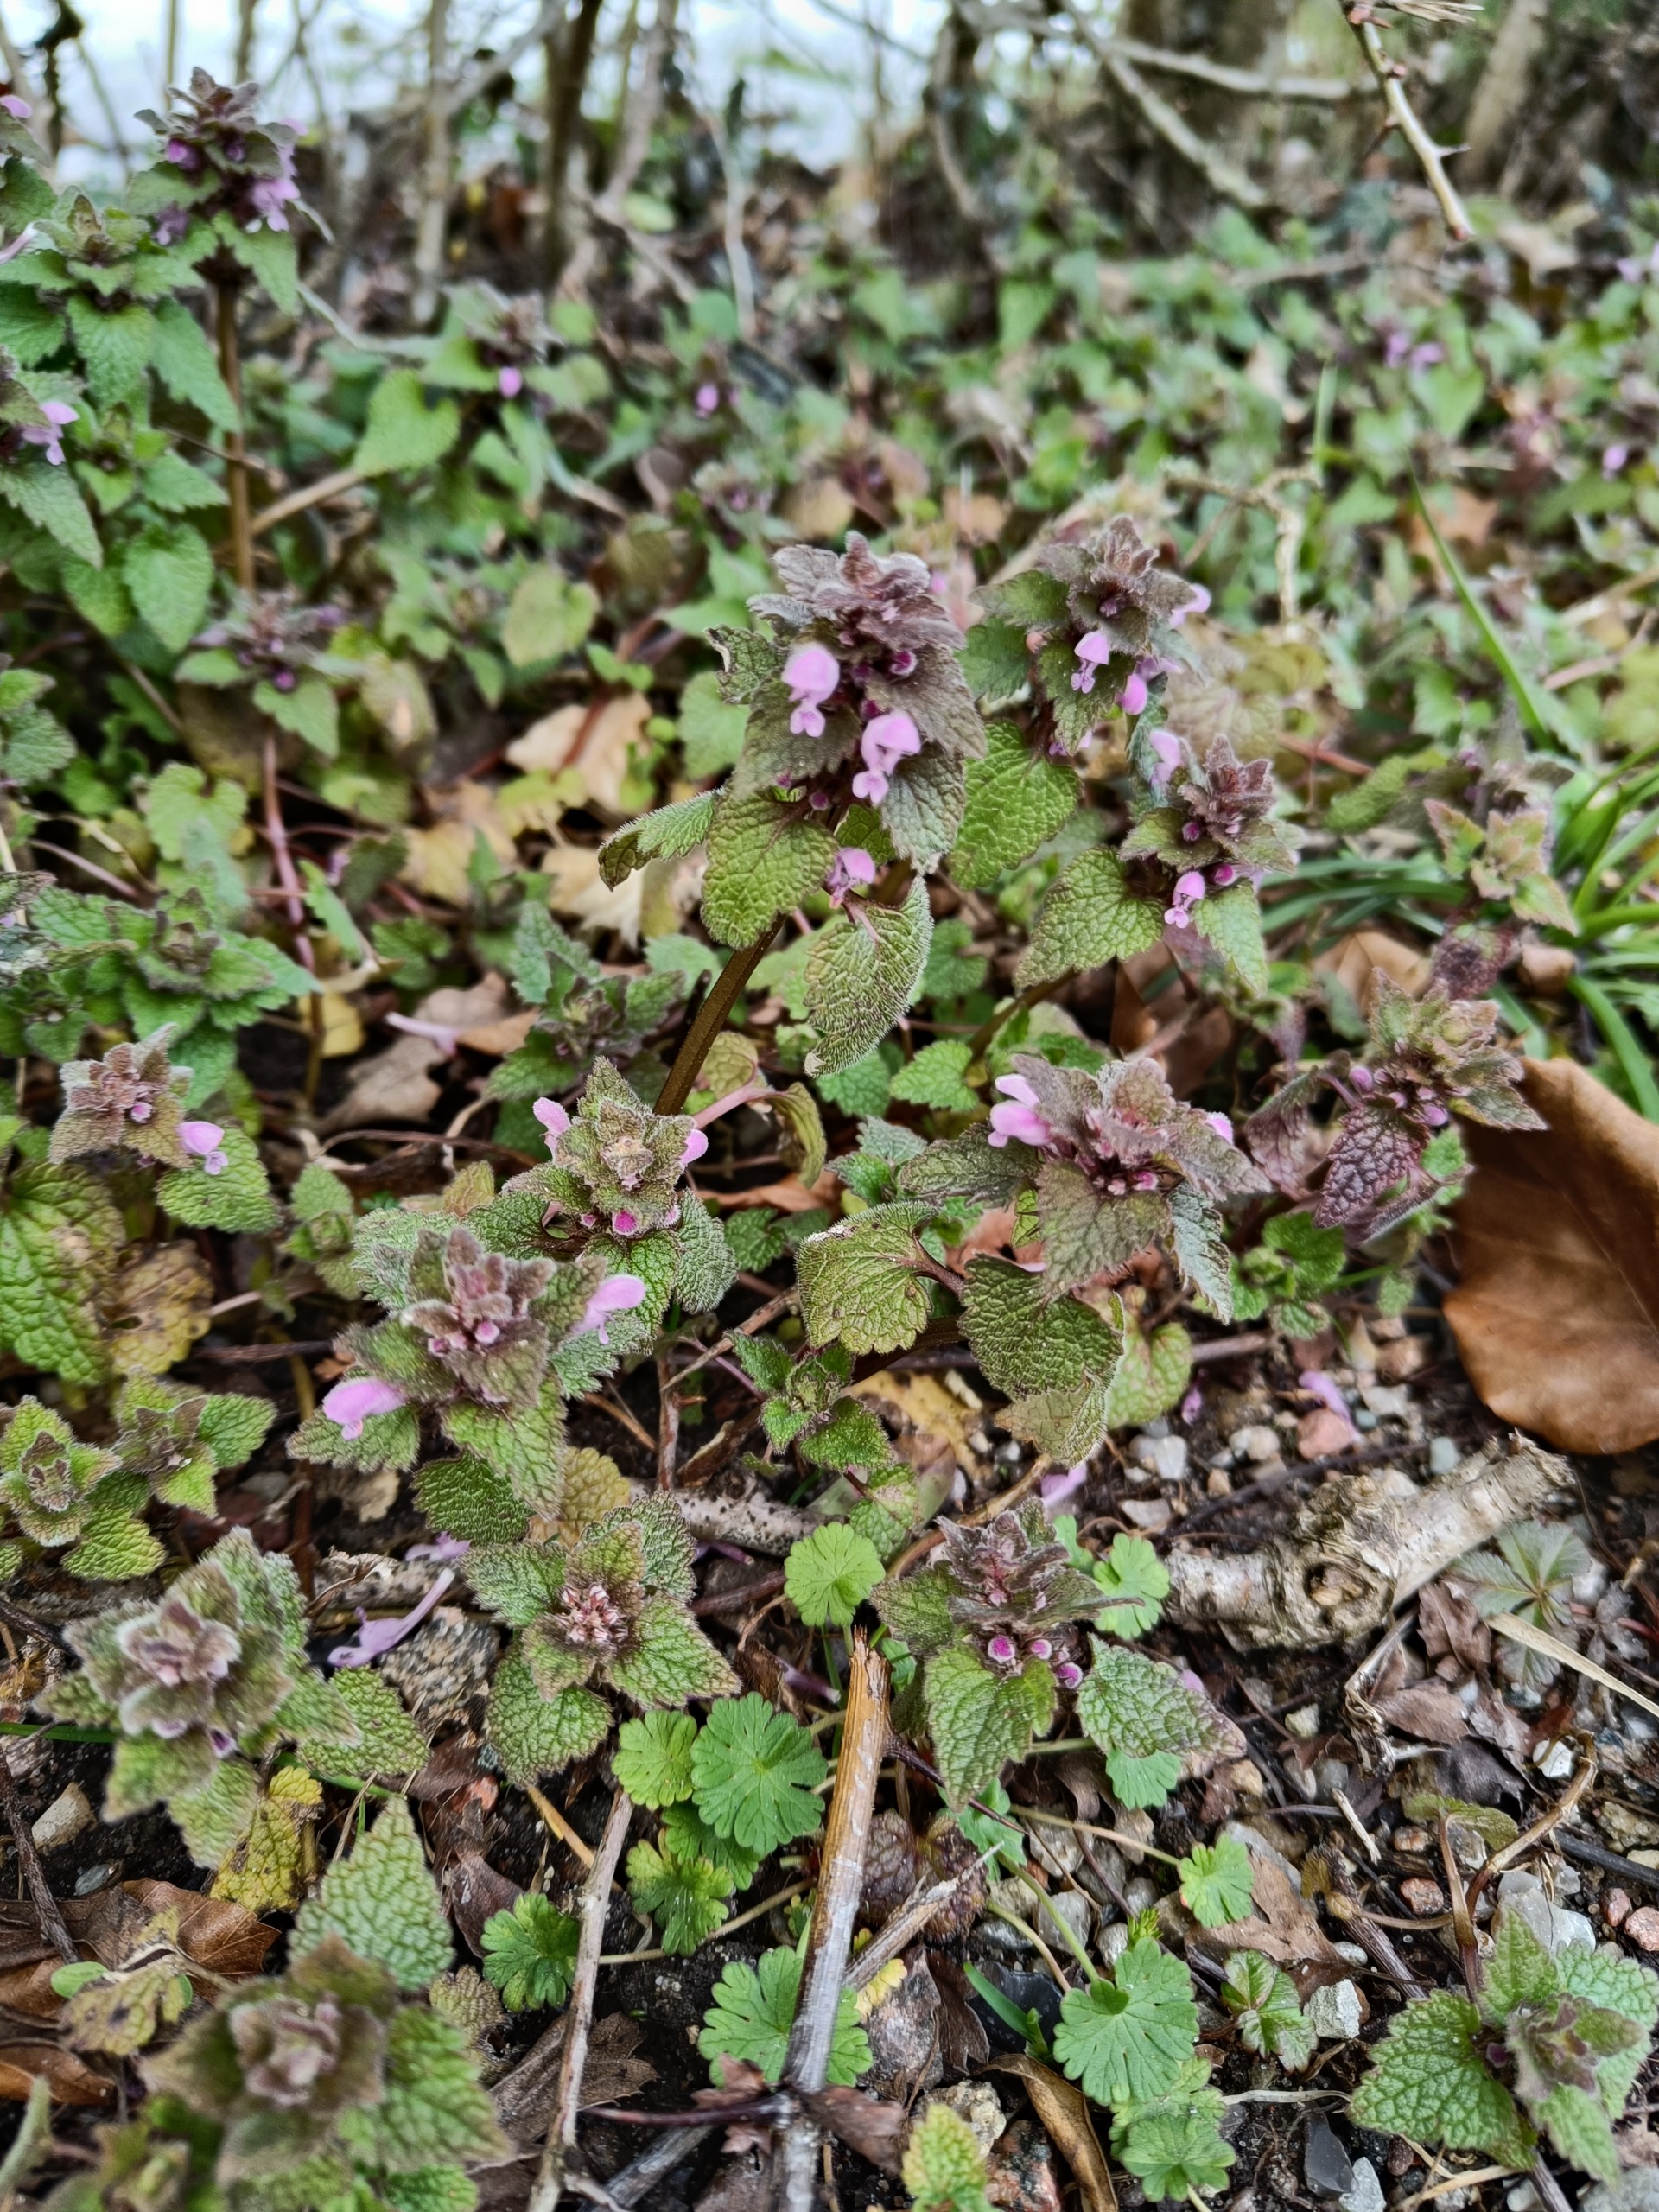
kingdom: Plantae
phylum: Tracheophyta
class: Magnoliopsida
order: Lamiales
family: Lamiaceae
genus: Lamium
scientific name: Lamium purpureum
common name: Rød tvetand
